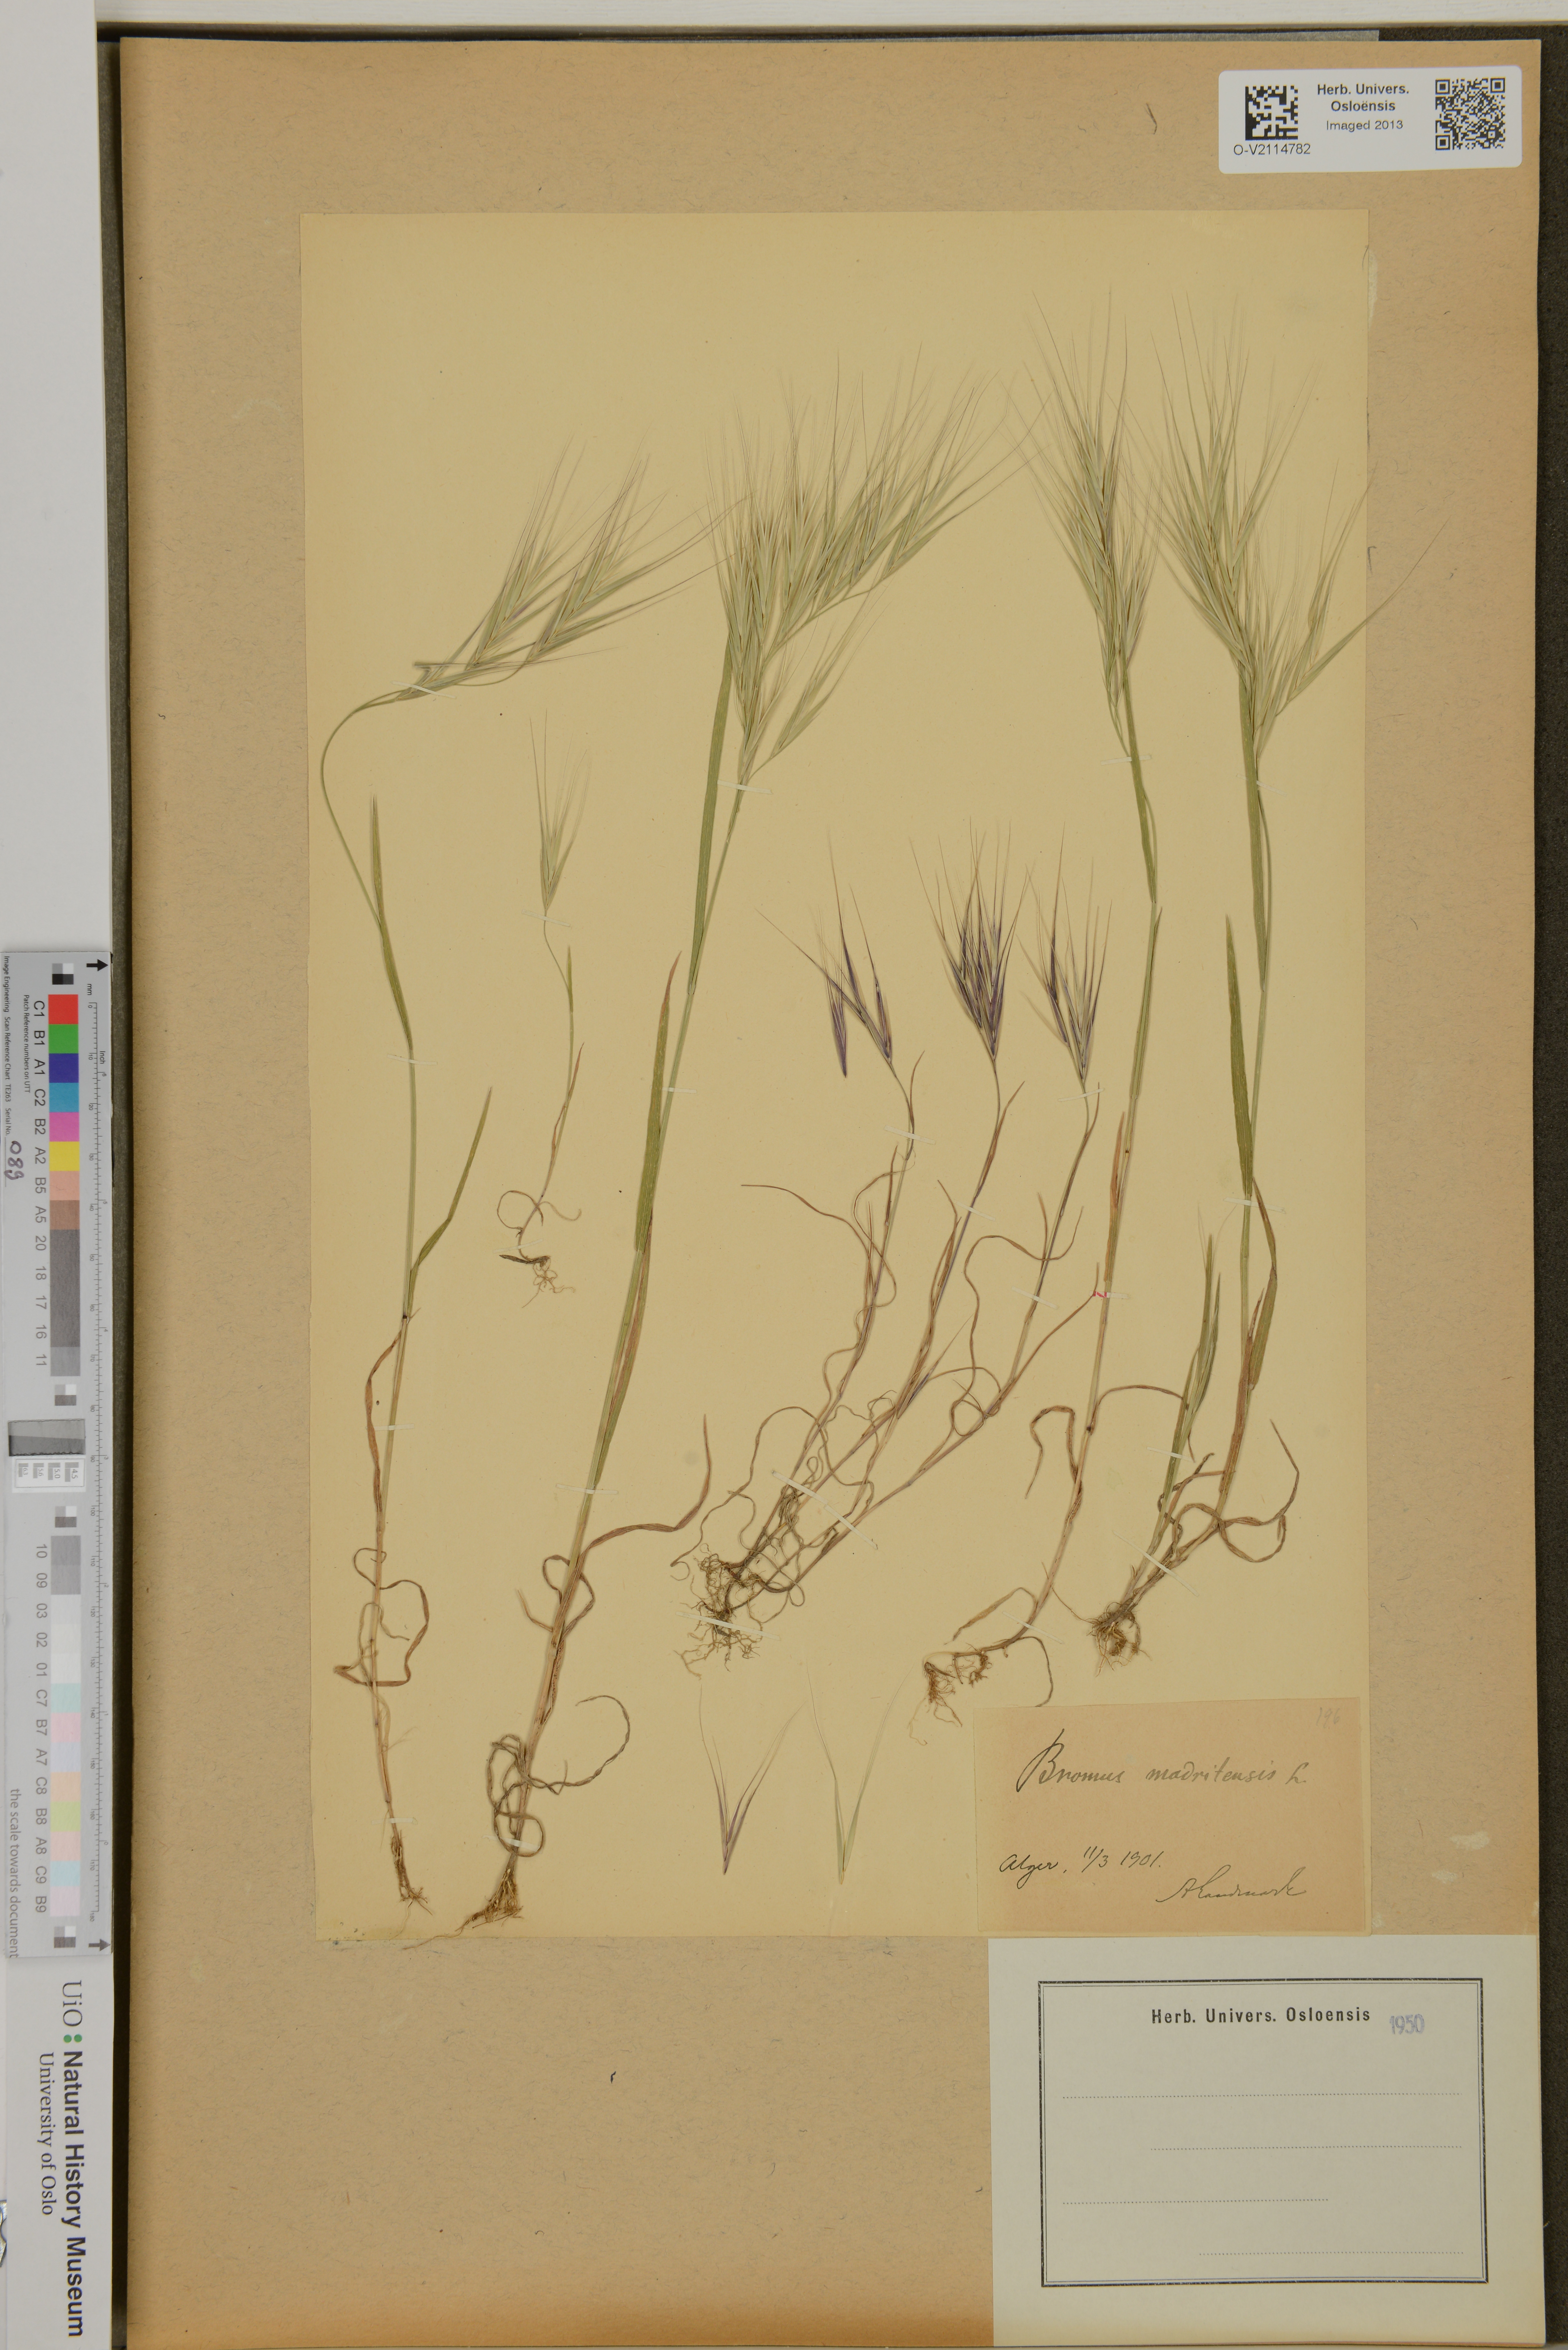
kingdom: Plantae
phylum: Tracheophyta
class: Liliopsida
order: Poales
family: Poaceae
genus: Bromus
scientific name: Bromus madritensis
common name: Compact brome
